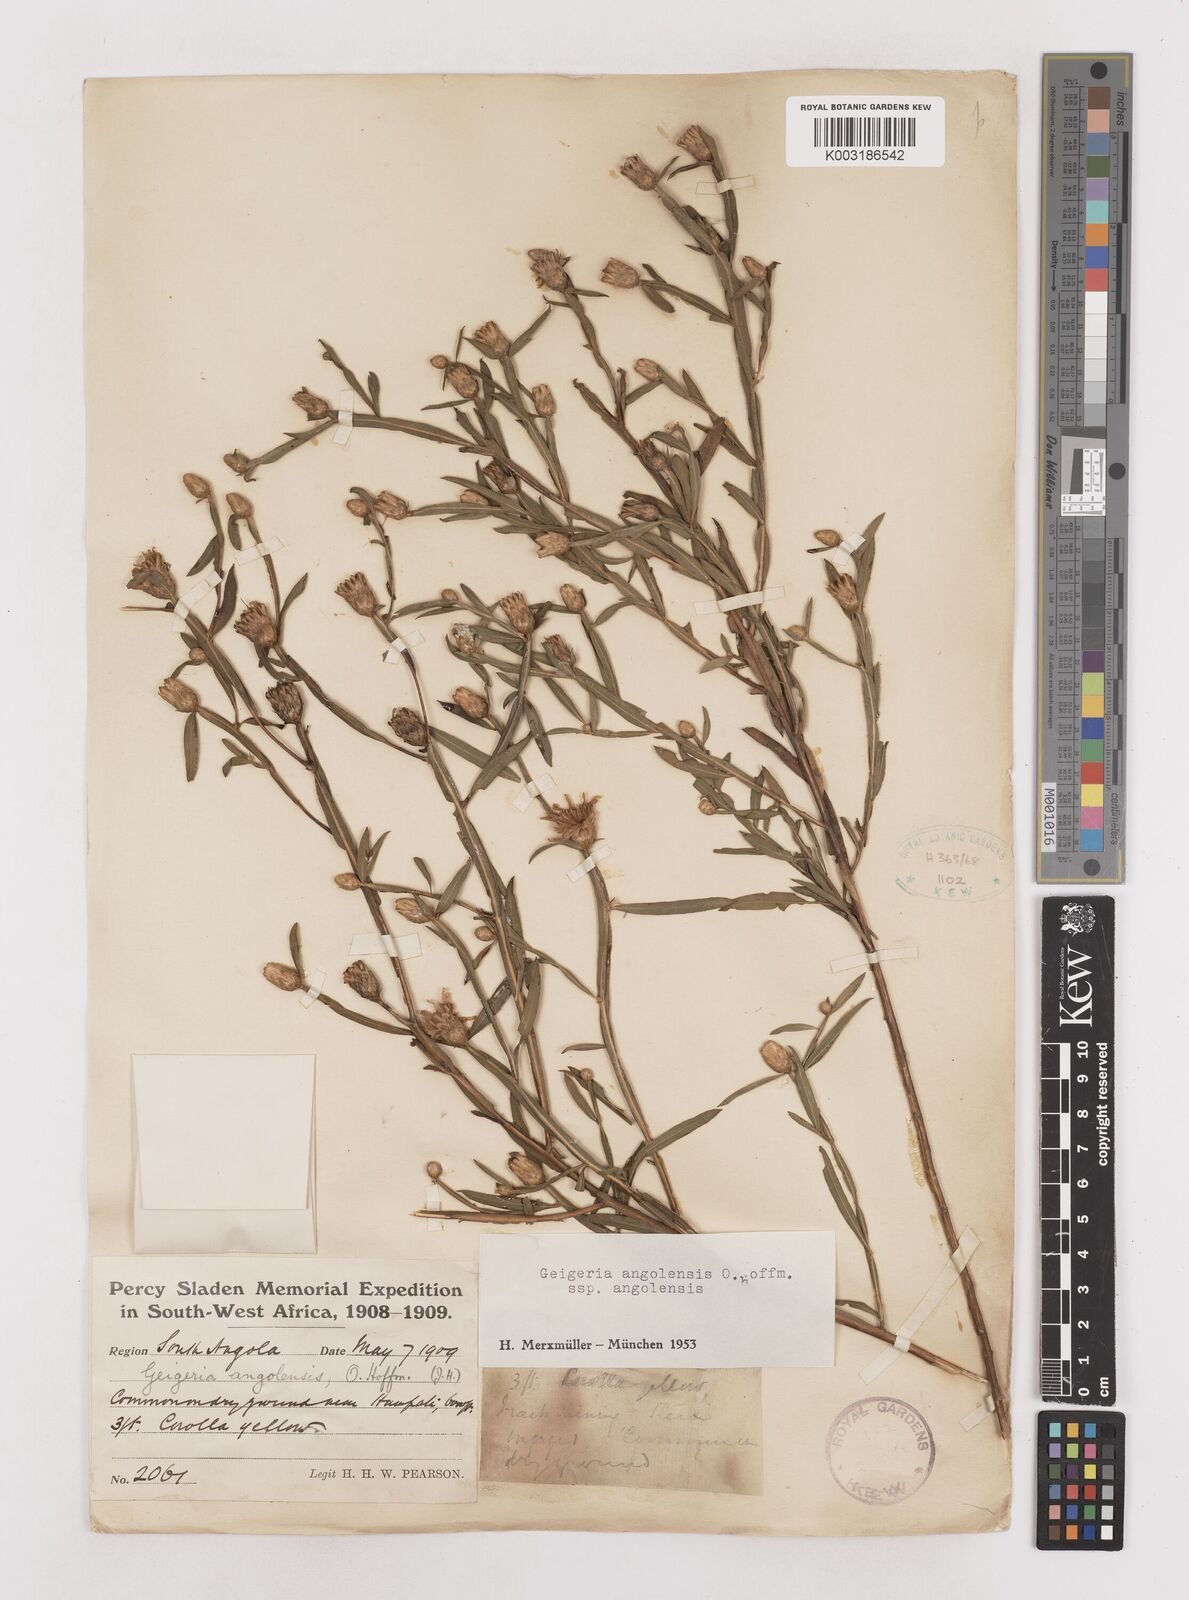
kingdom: Plantae
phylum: Tracheophyta
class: Magnoliopsida
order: Asterales
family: Asteraceae
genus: Geigeria
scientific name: Geigeria angolensis
